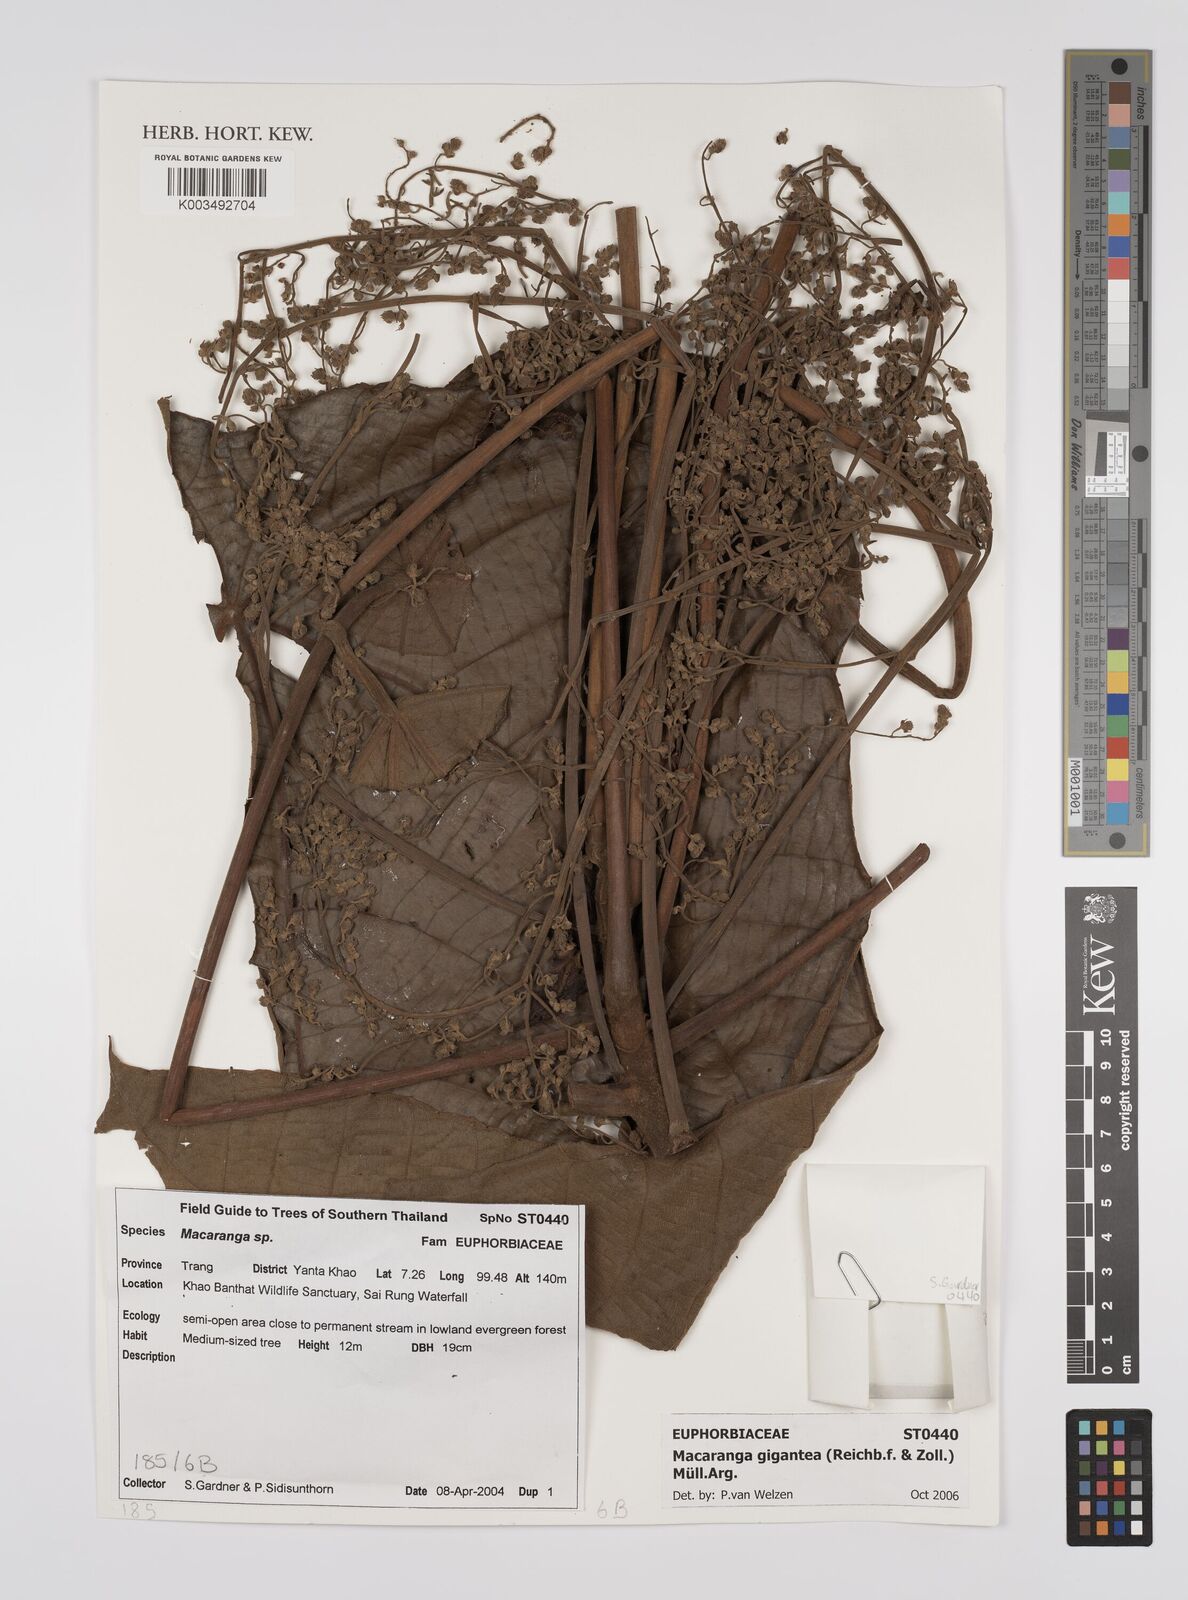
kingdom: Plantae
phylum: Tracheophyta
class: Magnoliopsida
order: Malpighiales
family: Euphorbiaceae
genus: Macaranga
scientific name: Macaranga gigantea
